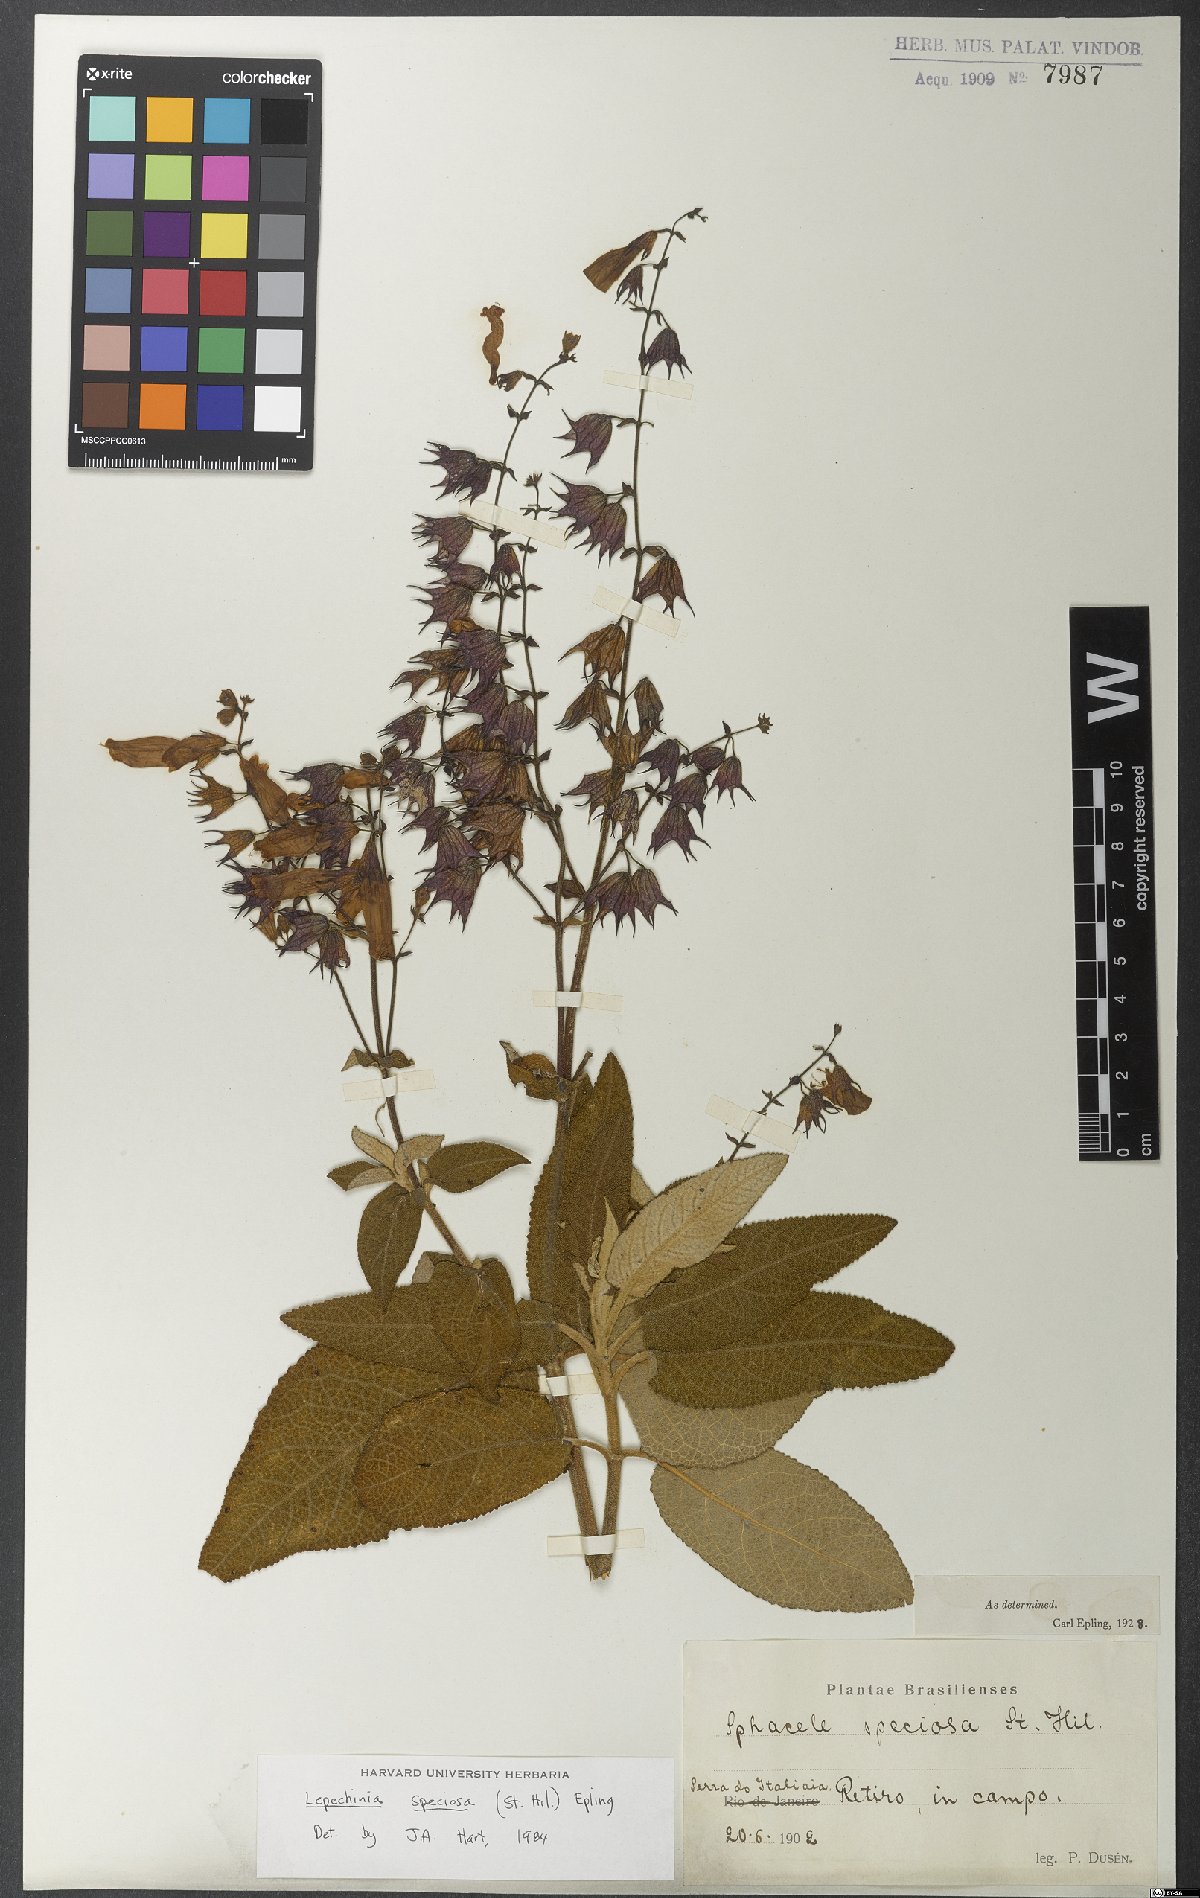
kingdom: Plantae
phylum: Tracheophyta
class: Magnoliopsida
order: Lamiales
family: Lamiaceae
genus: Lepechinia
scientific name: Lepechinia speciosa
